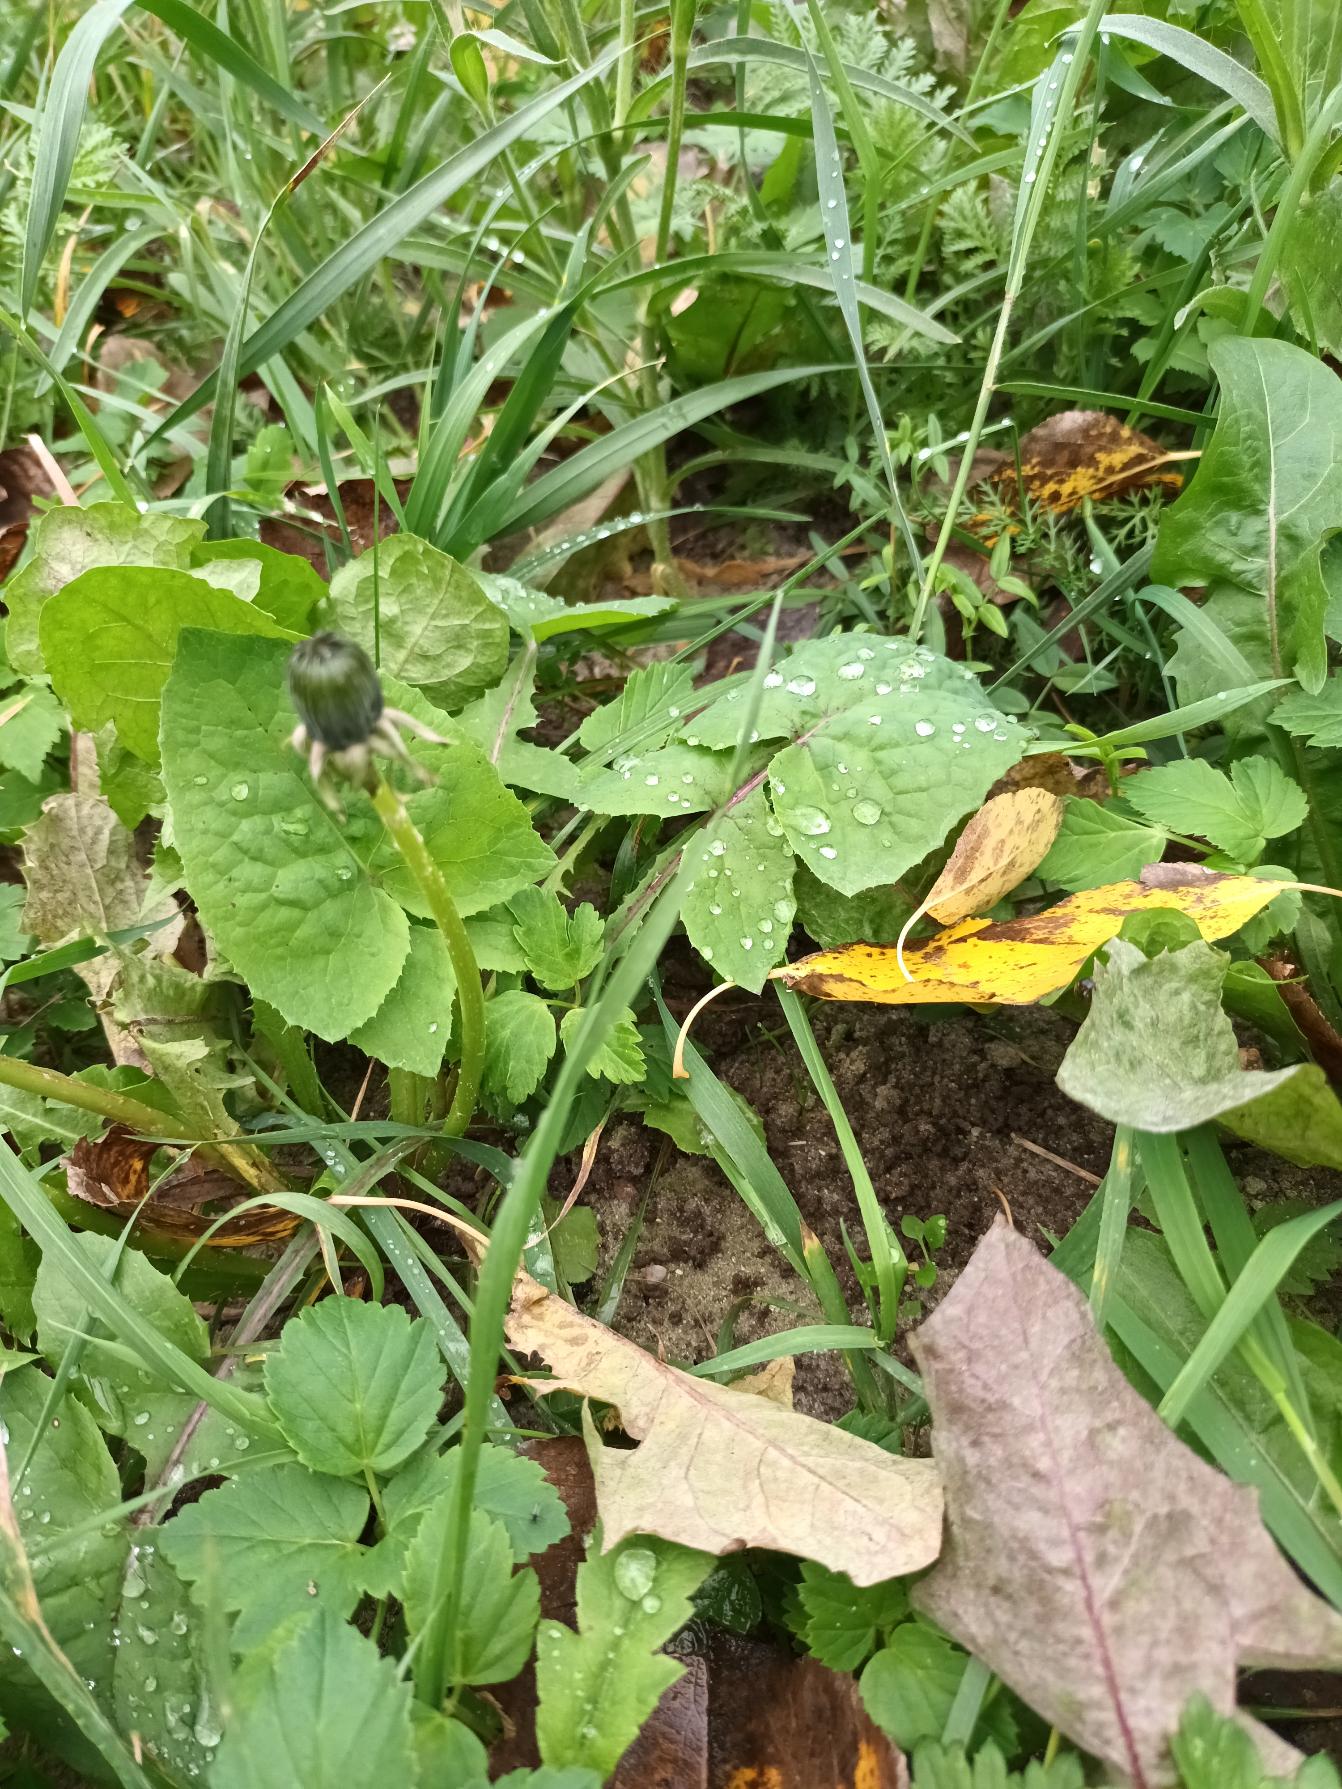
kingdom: Plantae
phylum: Tracheophyta
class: Magnoliopsida
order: Asterales
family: Asteraceae
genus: Sonchus
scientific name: Sonchus oleraceus
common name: Almindelig svinemælk
